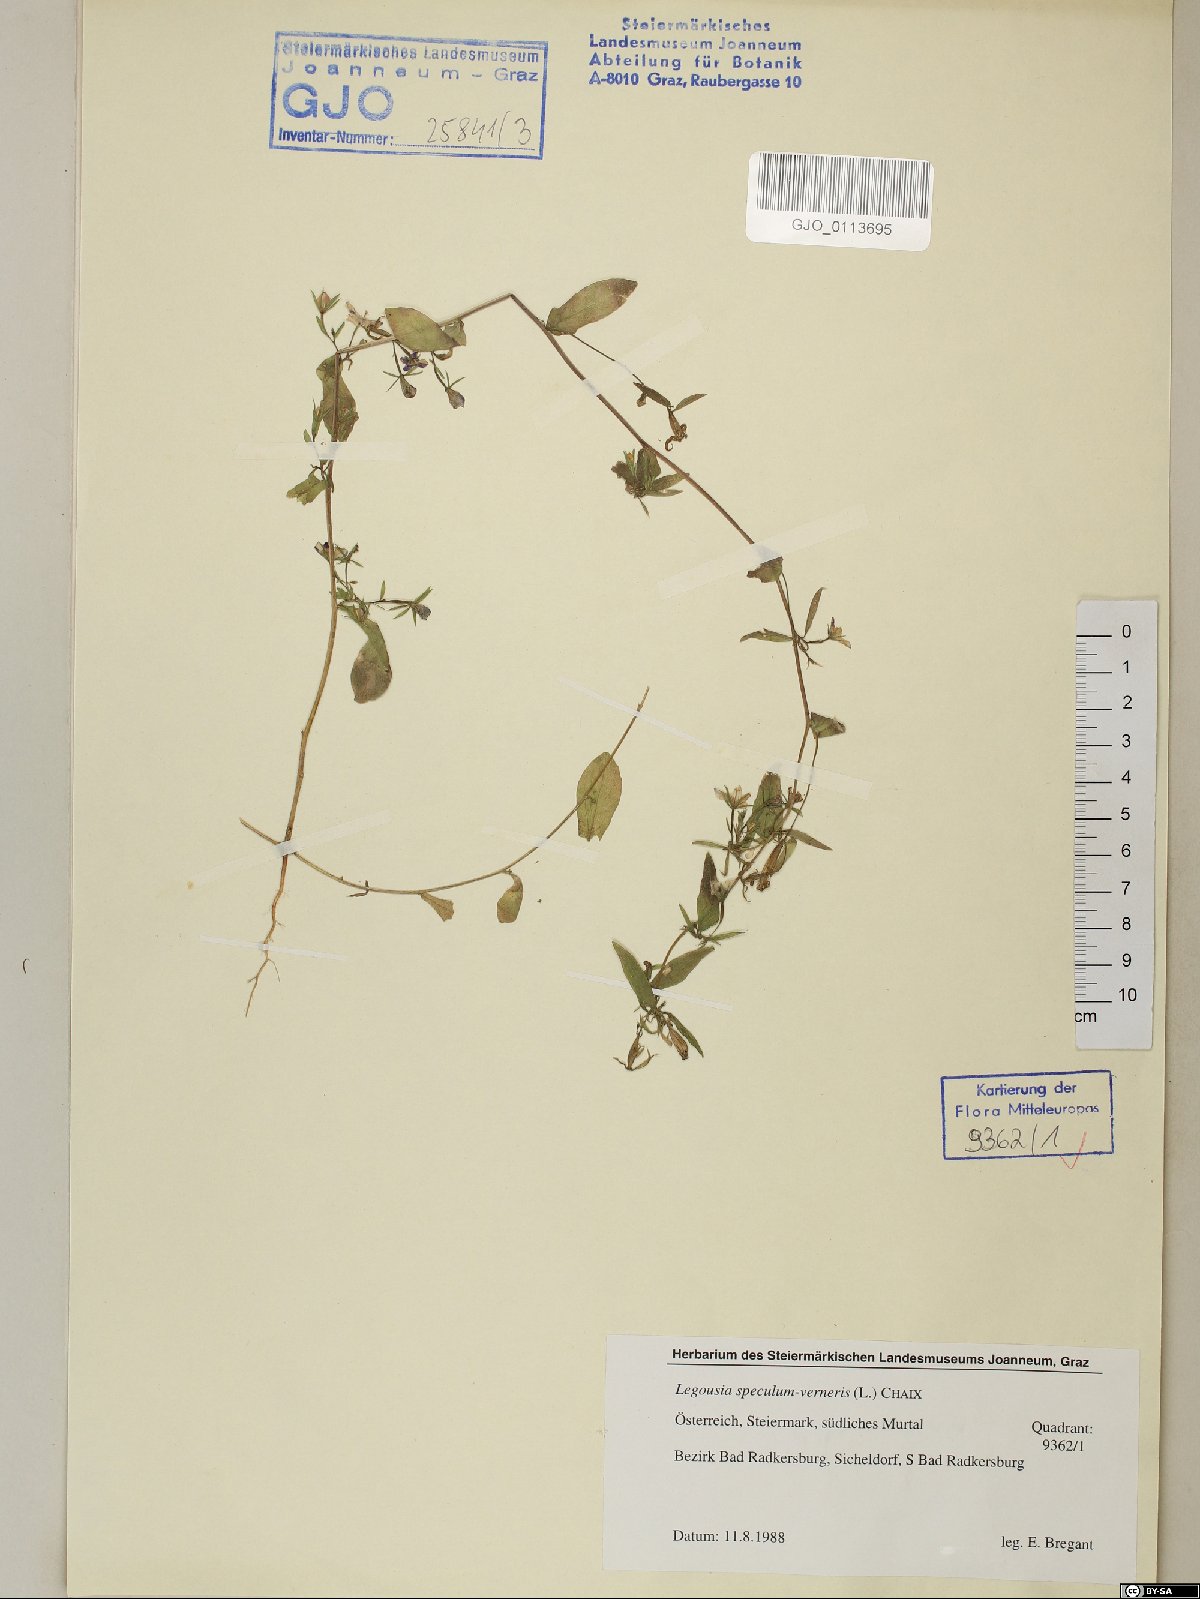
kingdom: Plantae
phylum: Tracheophyta
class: Magnoliopsida
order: Asterales
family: Campanulaceae
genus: Legousia
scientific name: Legousia speculum-veneris
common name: Large venus's-looking-glass
